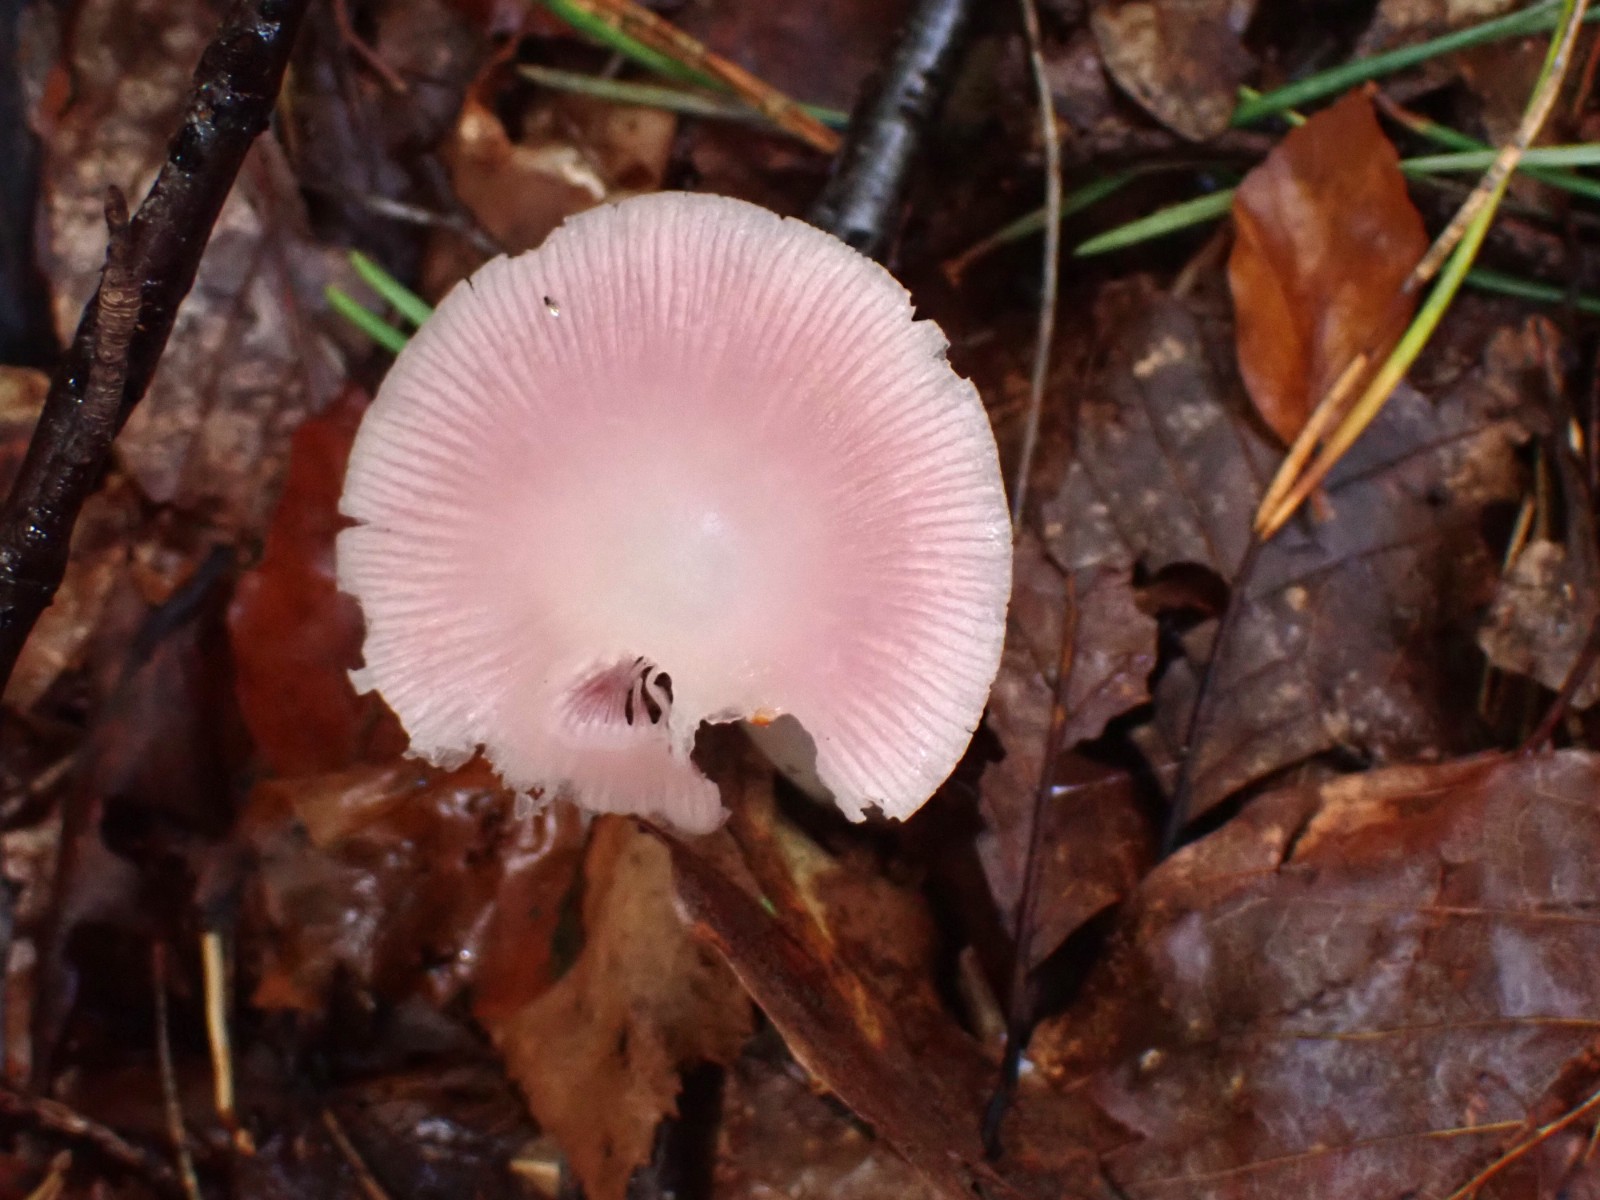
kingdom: Fungi
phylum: Basidiomycota
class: Agaricomycetes
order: Agaricales
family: Mycenaceae
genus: Mycena
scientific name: Mycena rosea
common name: rosa huesvamp
